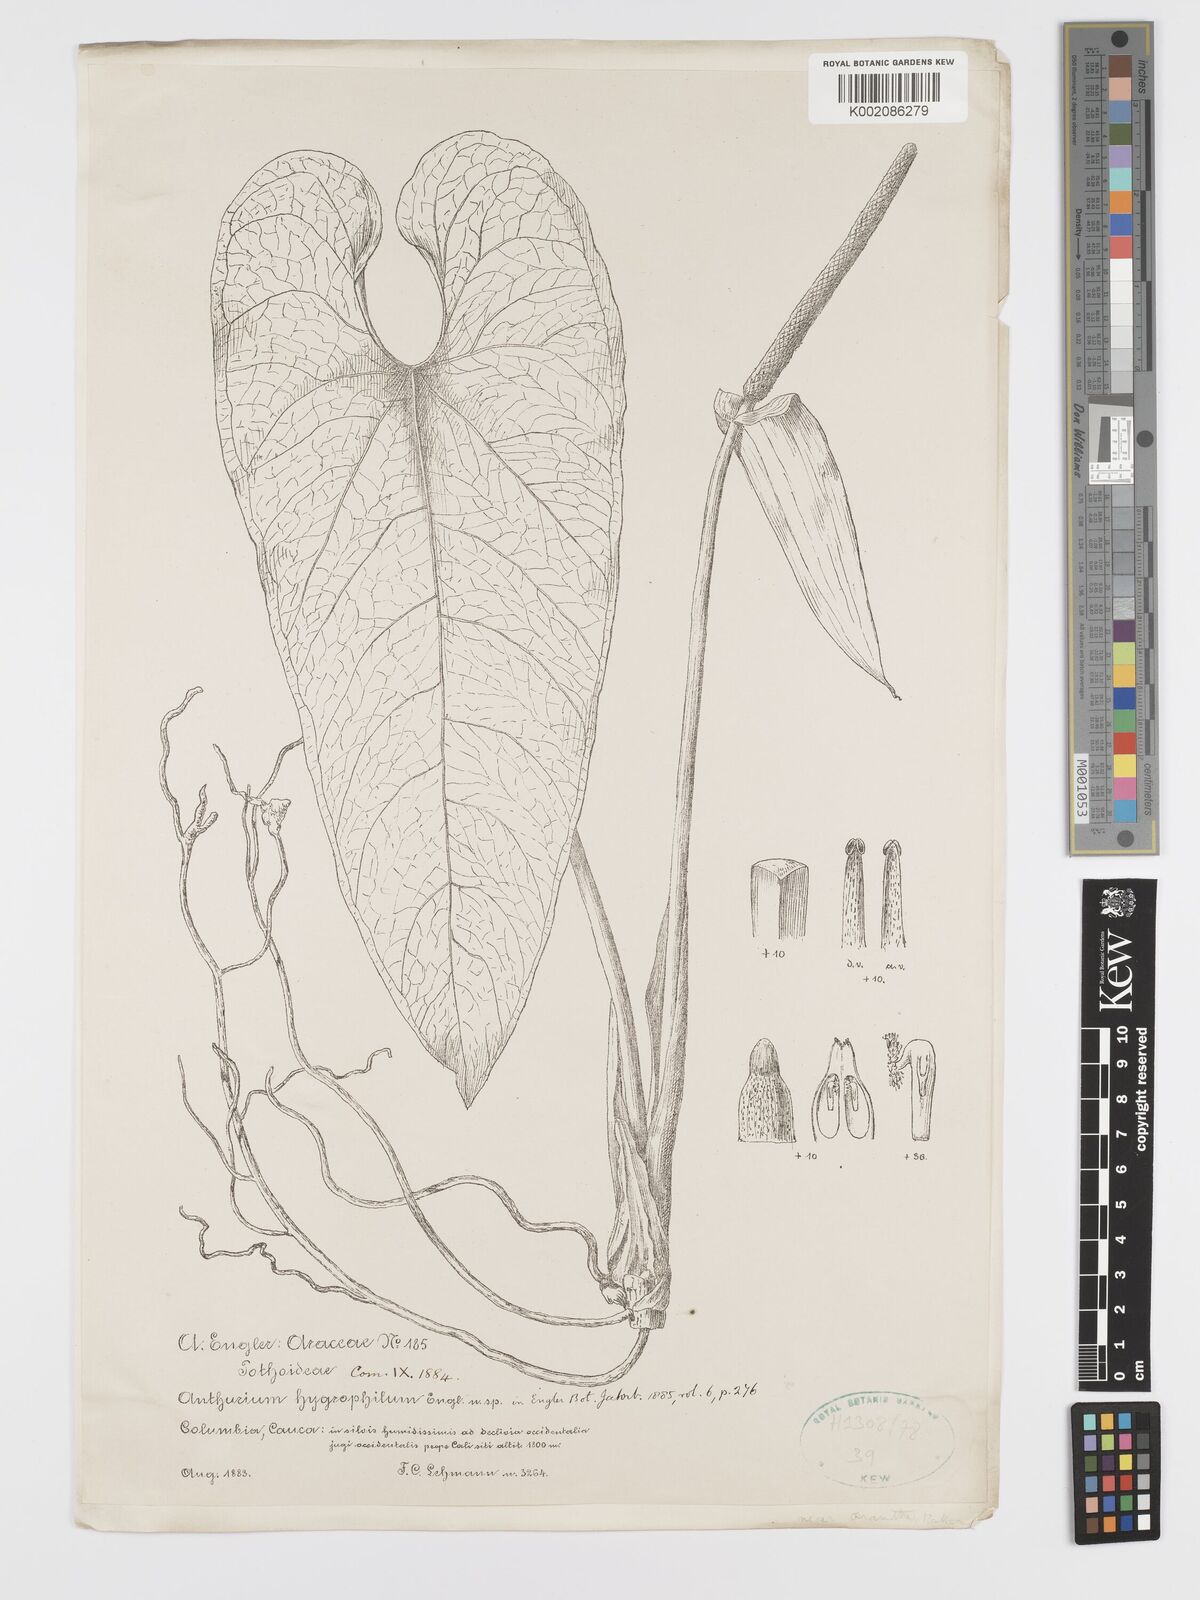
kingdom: Plantae
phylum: Tracheophyta
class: Liliopsida
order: Alismatales
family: Araceae
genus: Anthurium
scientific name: Anthurium hygrophilum
